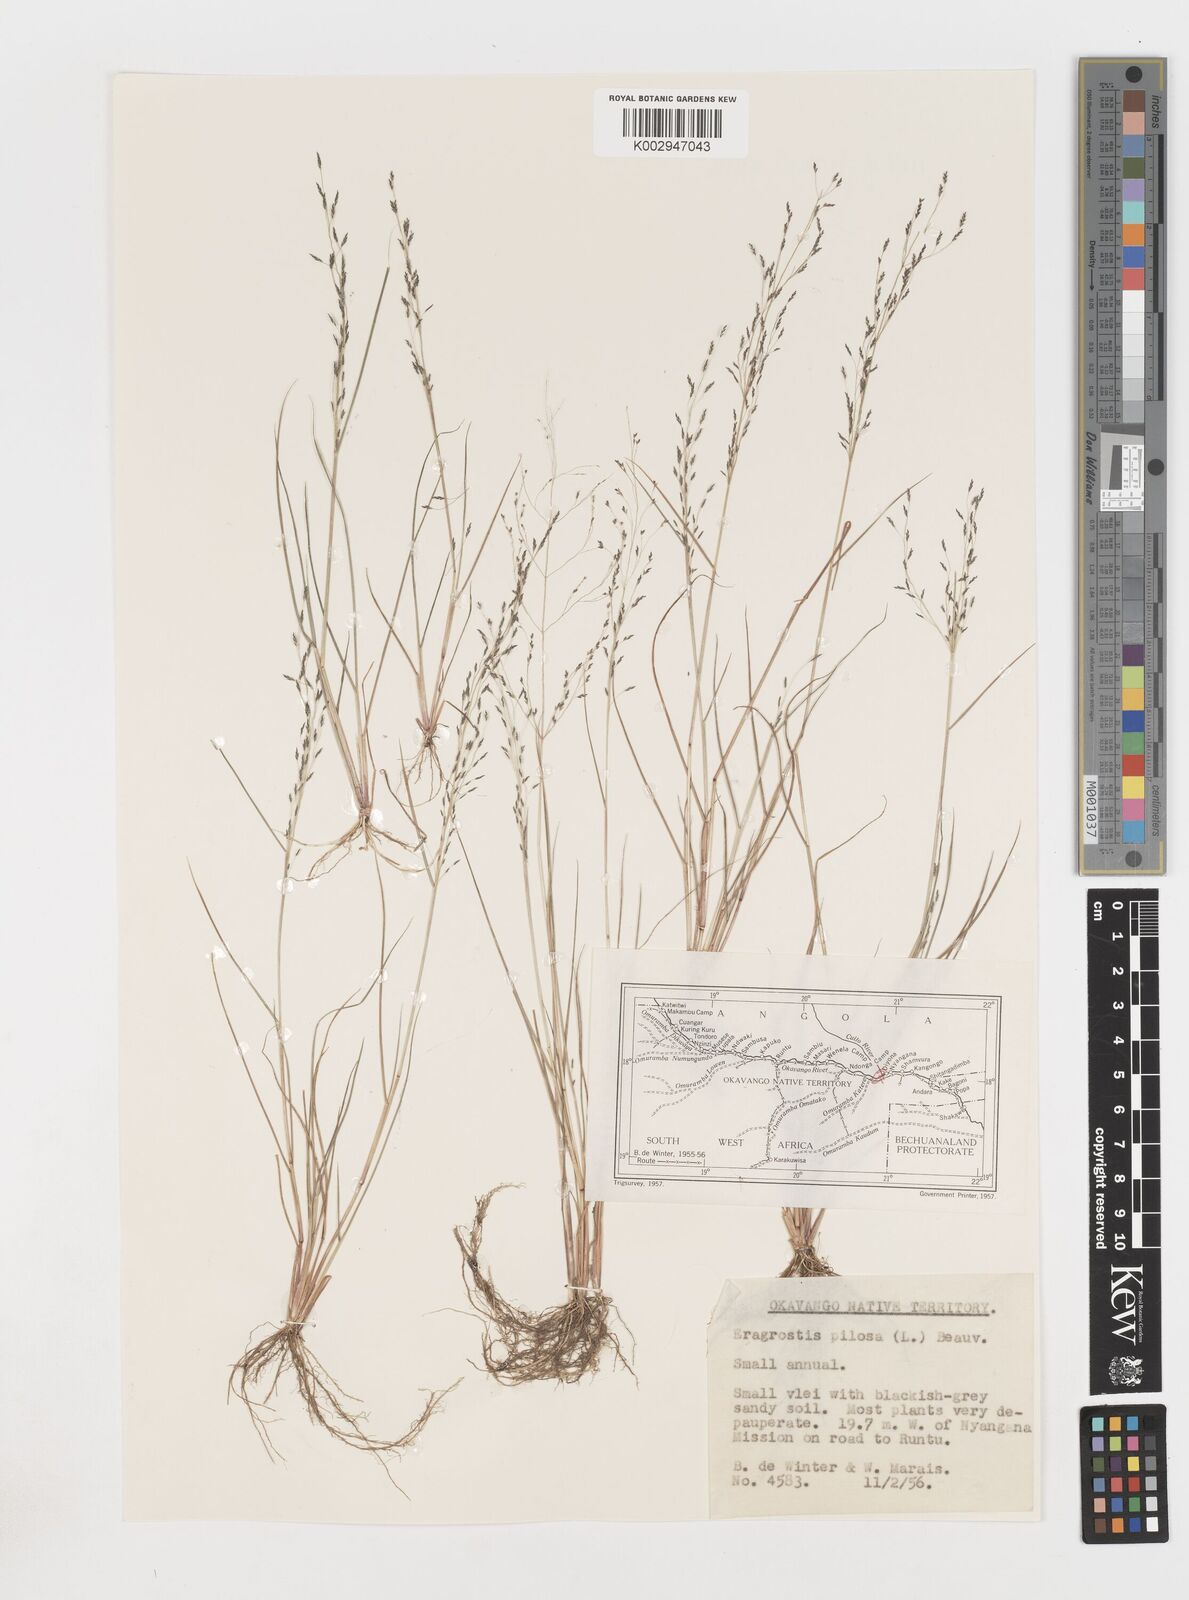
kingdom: Plantae
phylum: Tracheophyta
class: Liliopsida
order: Poales
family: Poaceae
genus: Eragrostis
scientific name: Eragrostis pilosa
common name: Indian lovegrass
